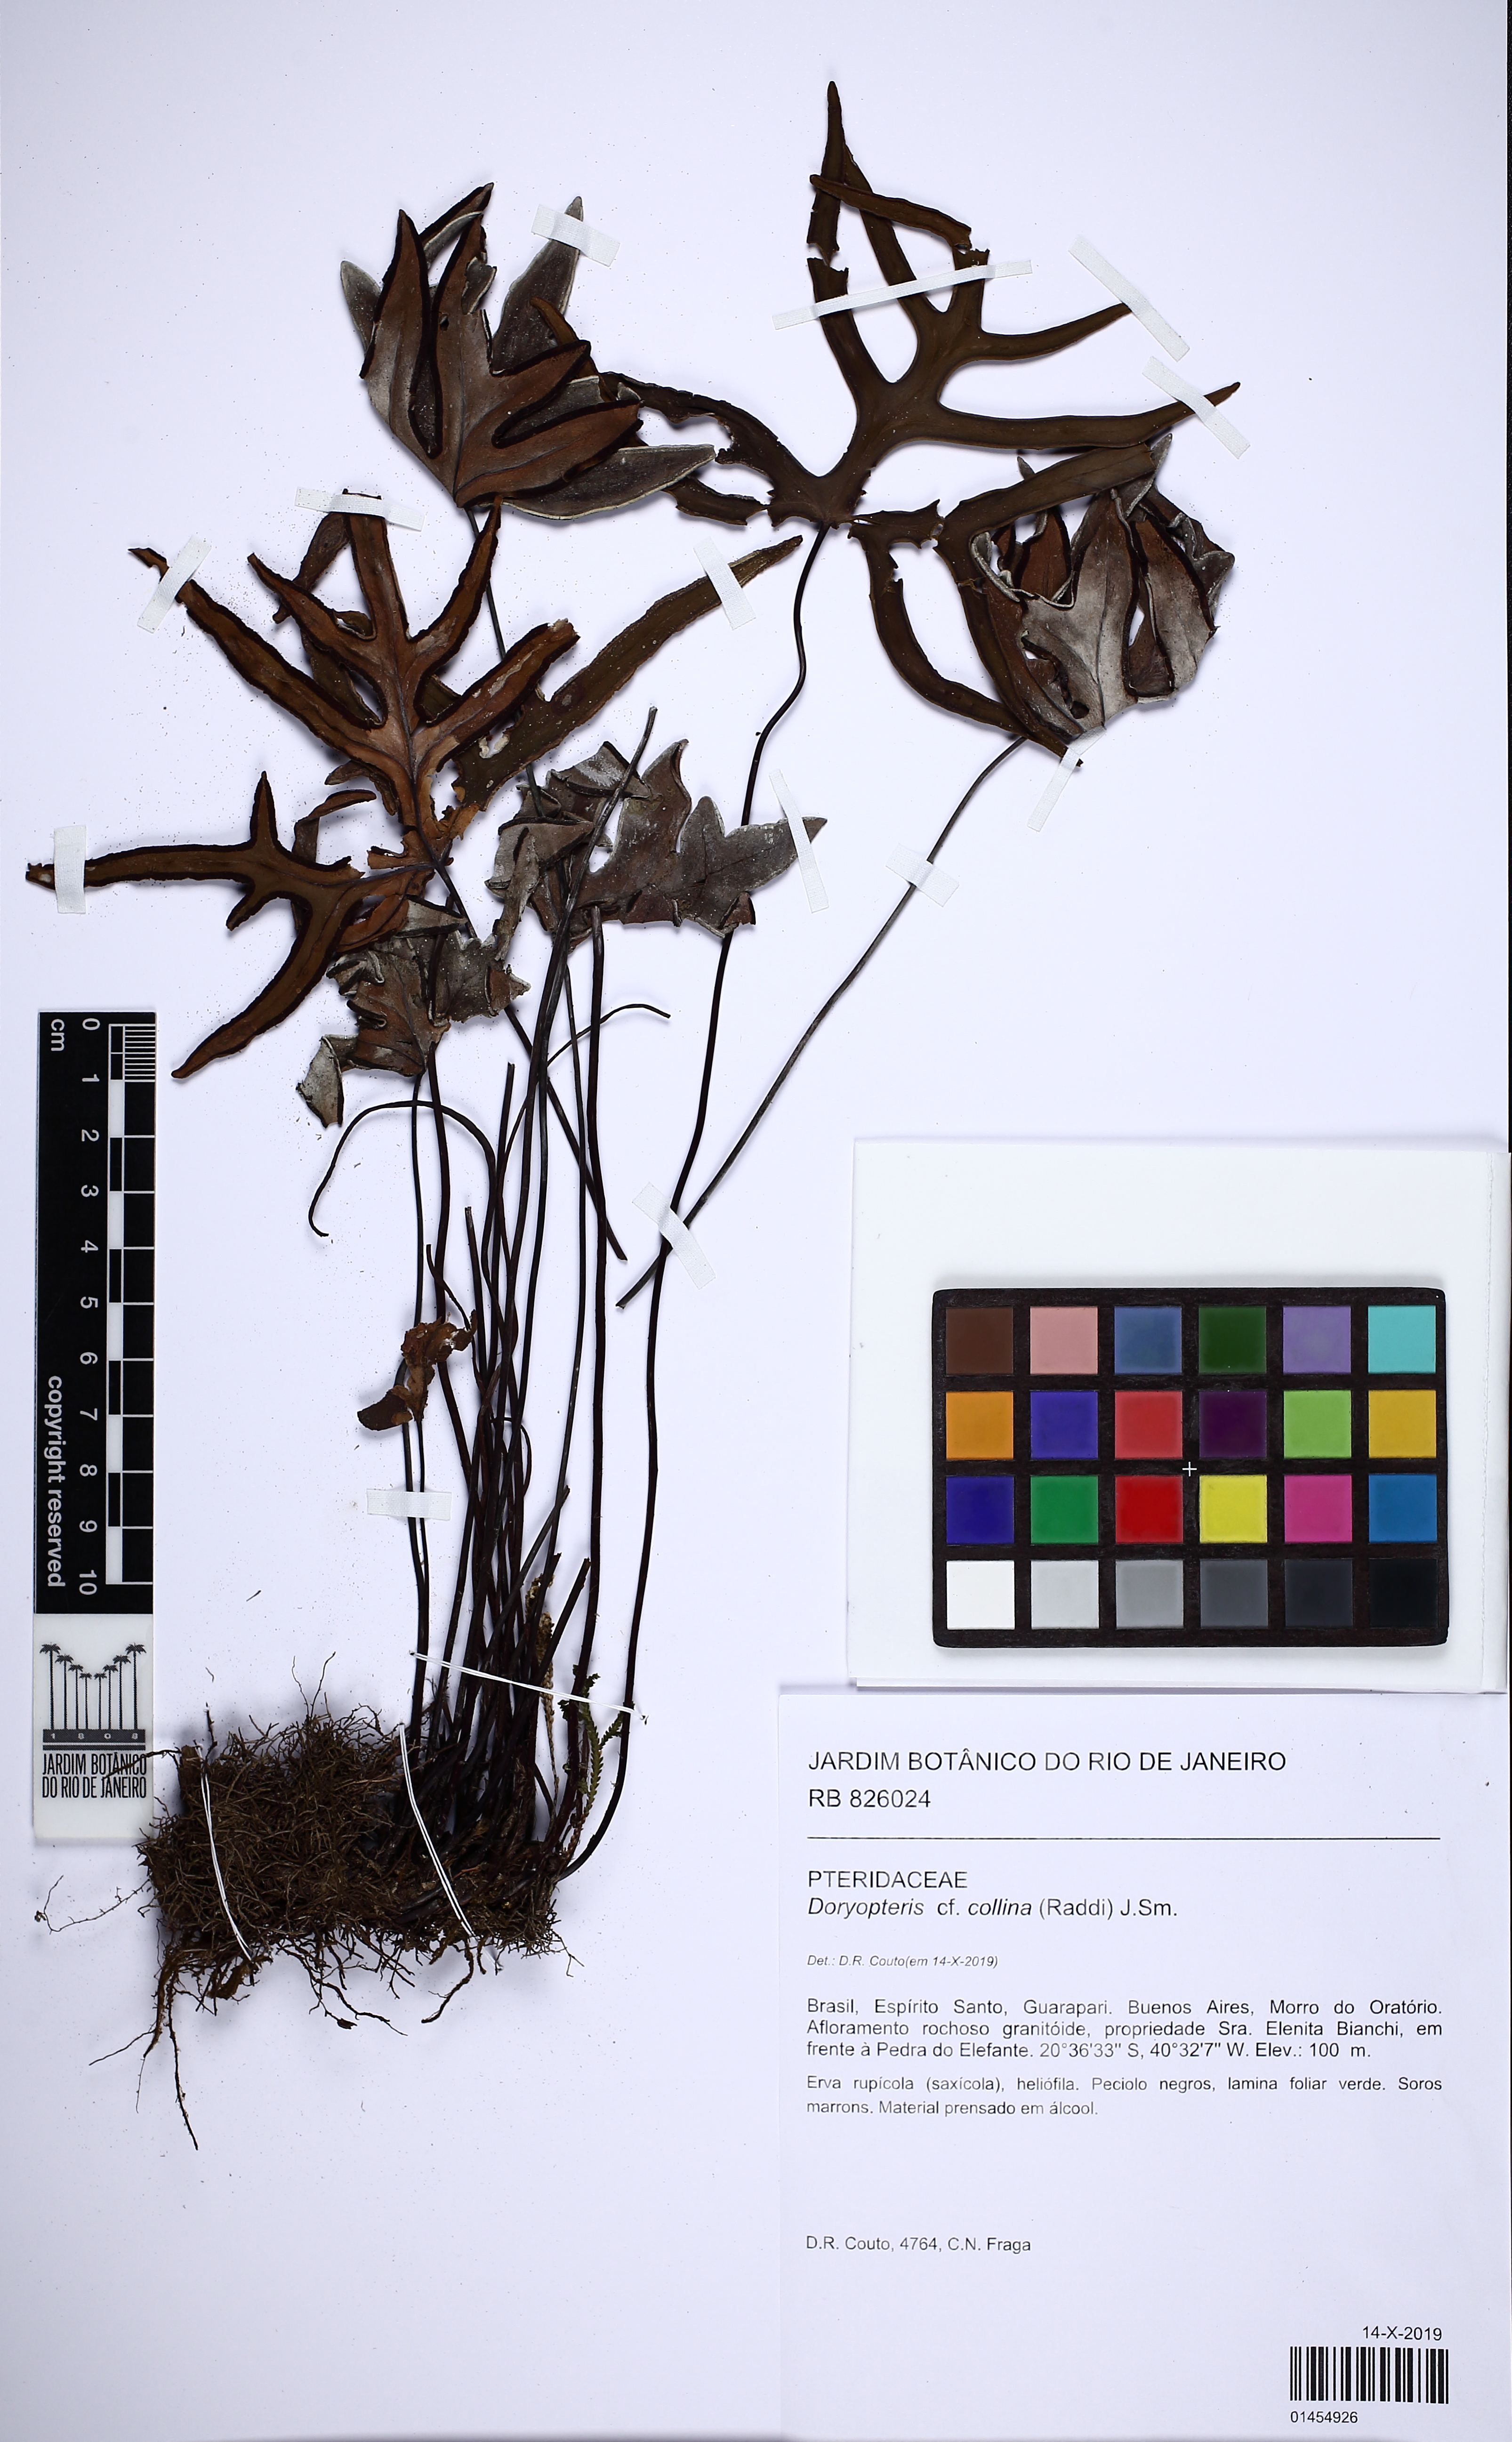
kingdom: Plantae
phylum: Tracheophyta
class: Polypodiopsida
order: Polypodiales
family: Pteridaceae
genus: Doryopteris
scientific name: Doryopteris collina
